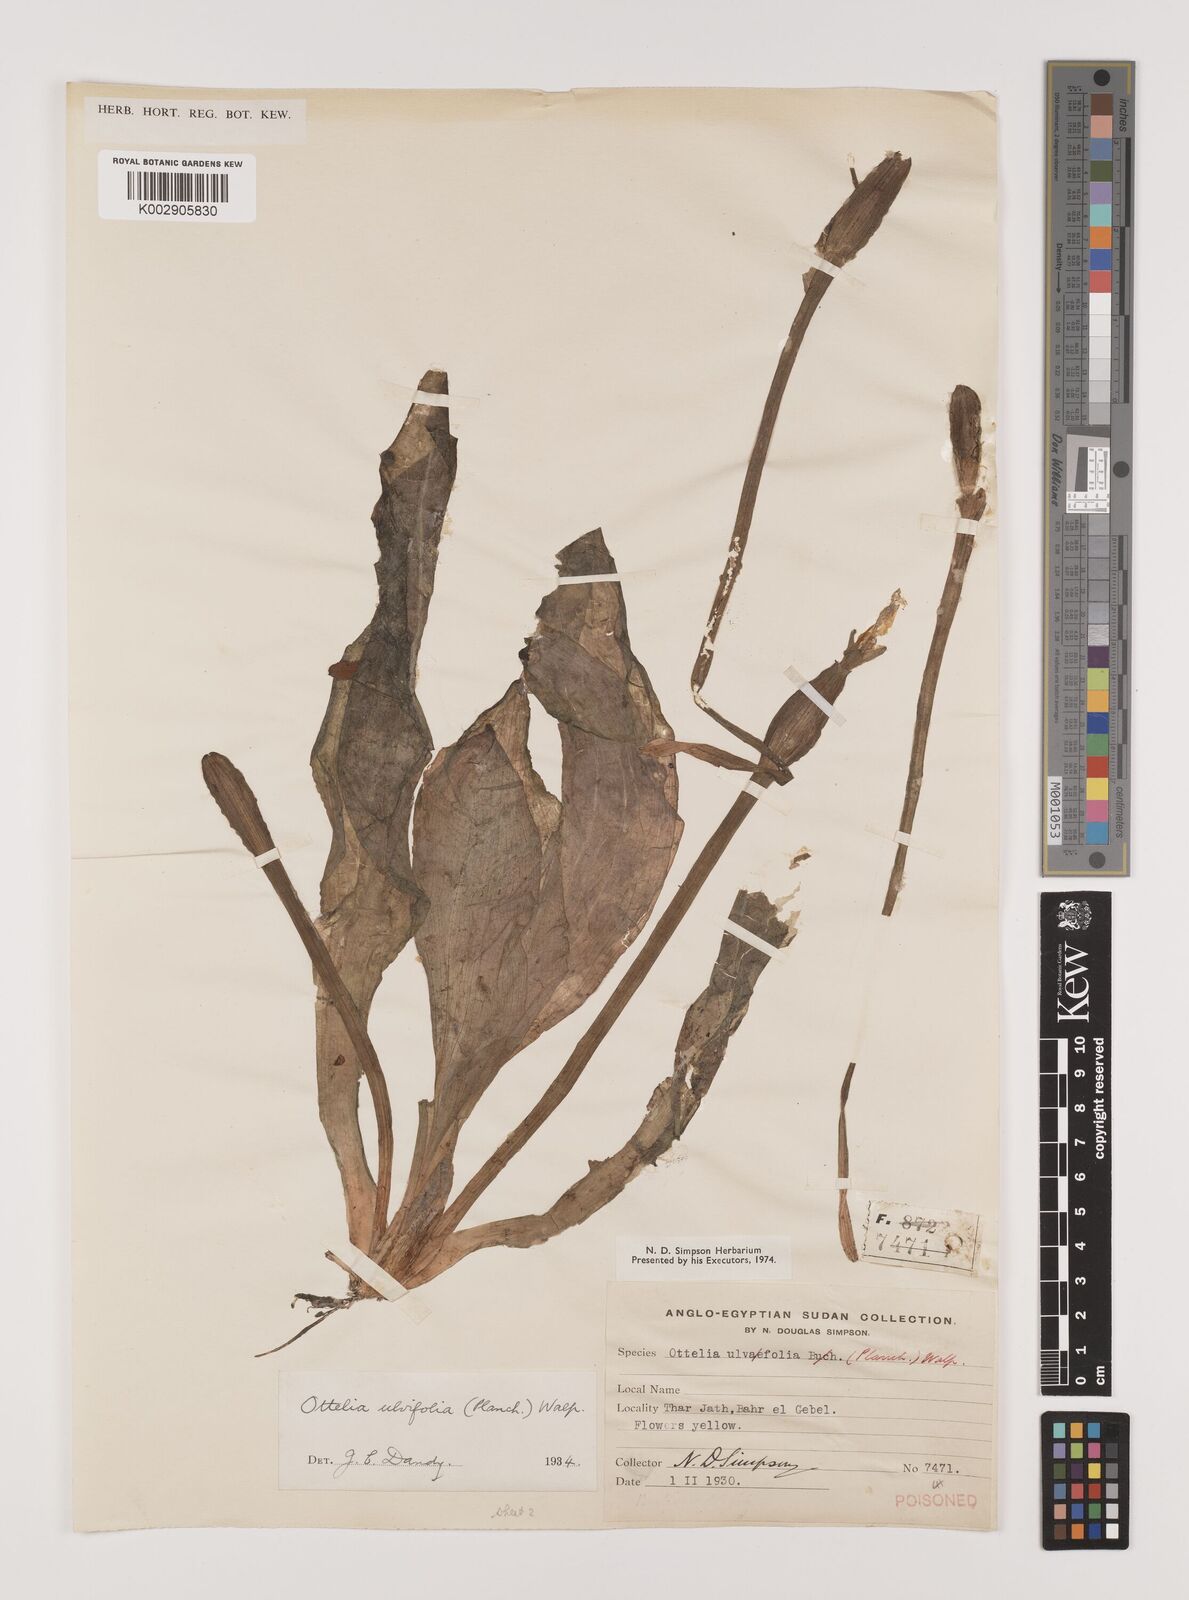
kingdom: Plantae
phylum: Tracheophyta
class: Liliopsida
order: Alismatales
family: Hydrocharitaceae
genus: Ottelia
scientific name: Ottelia ulvifolia
